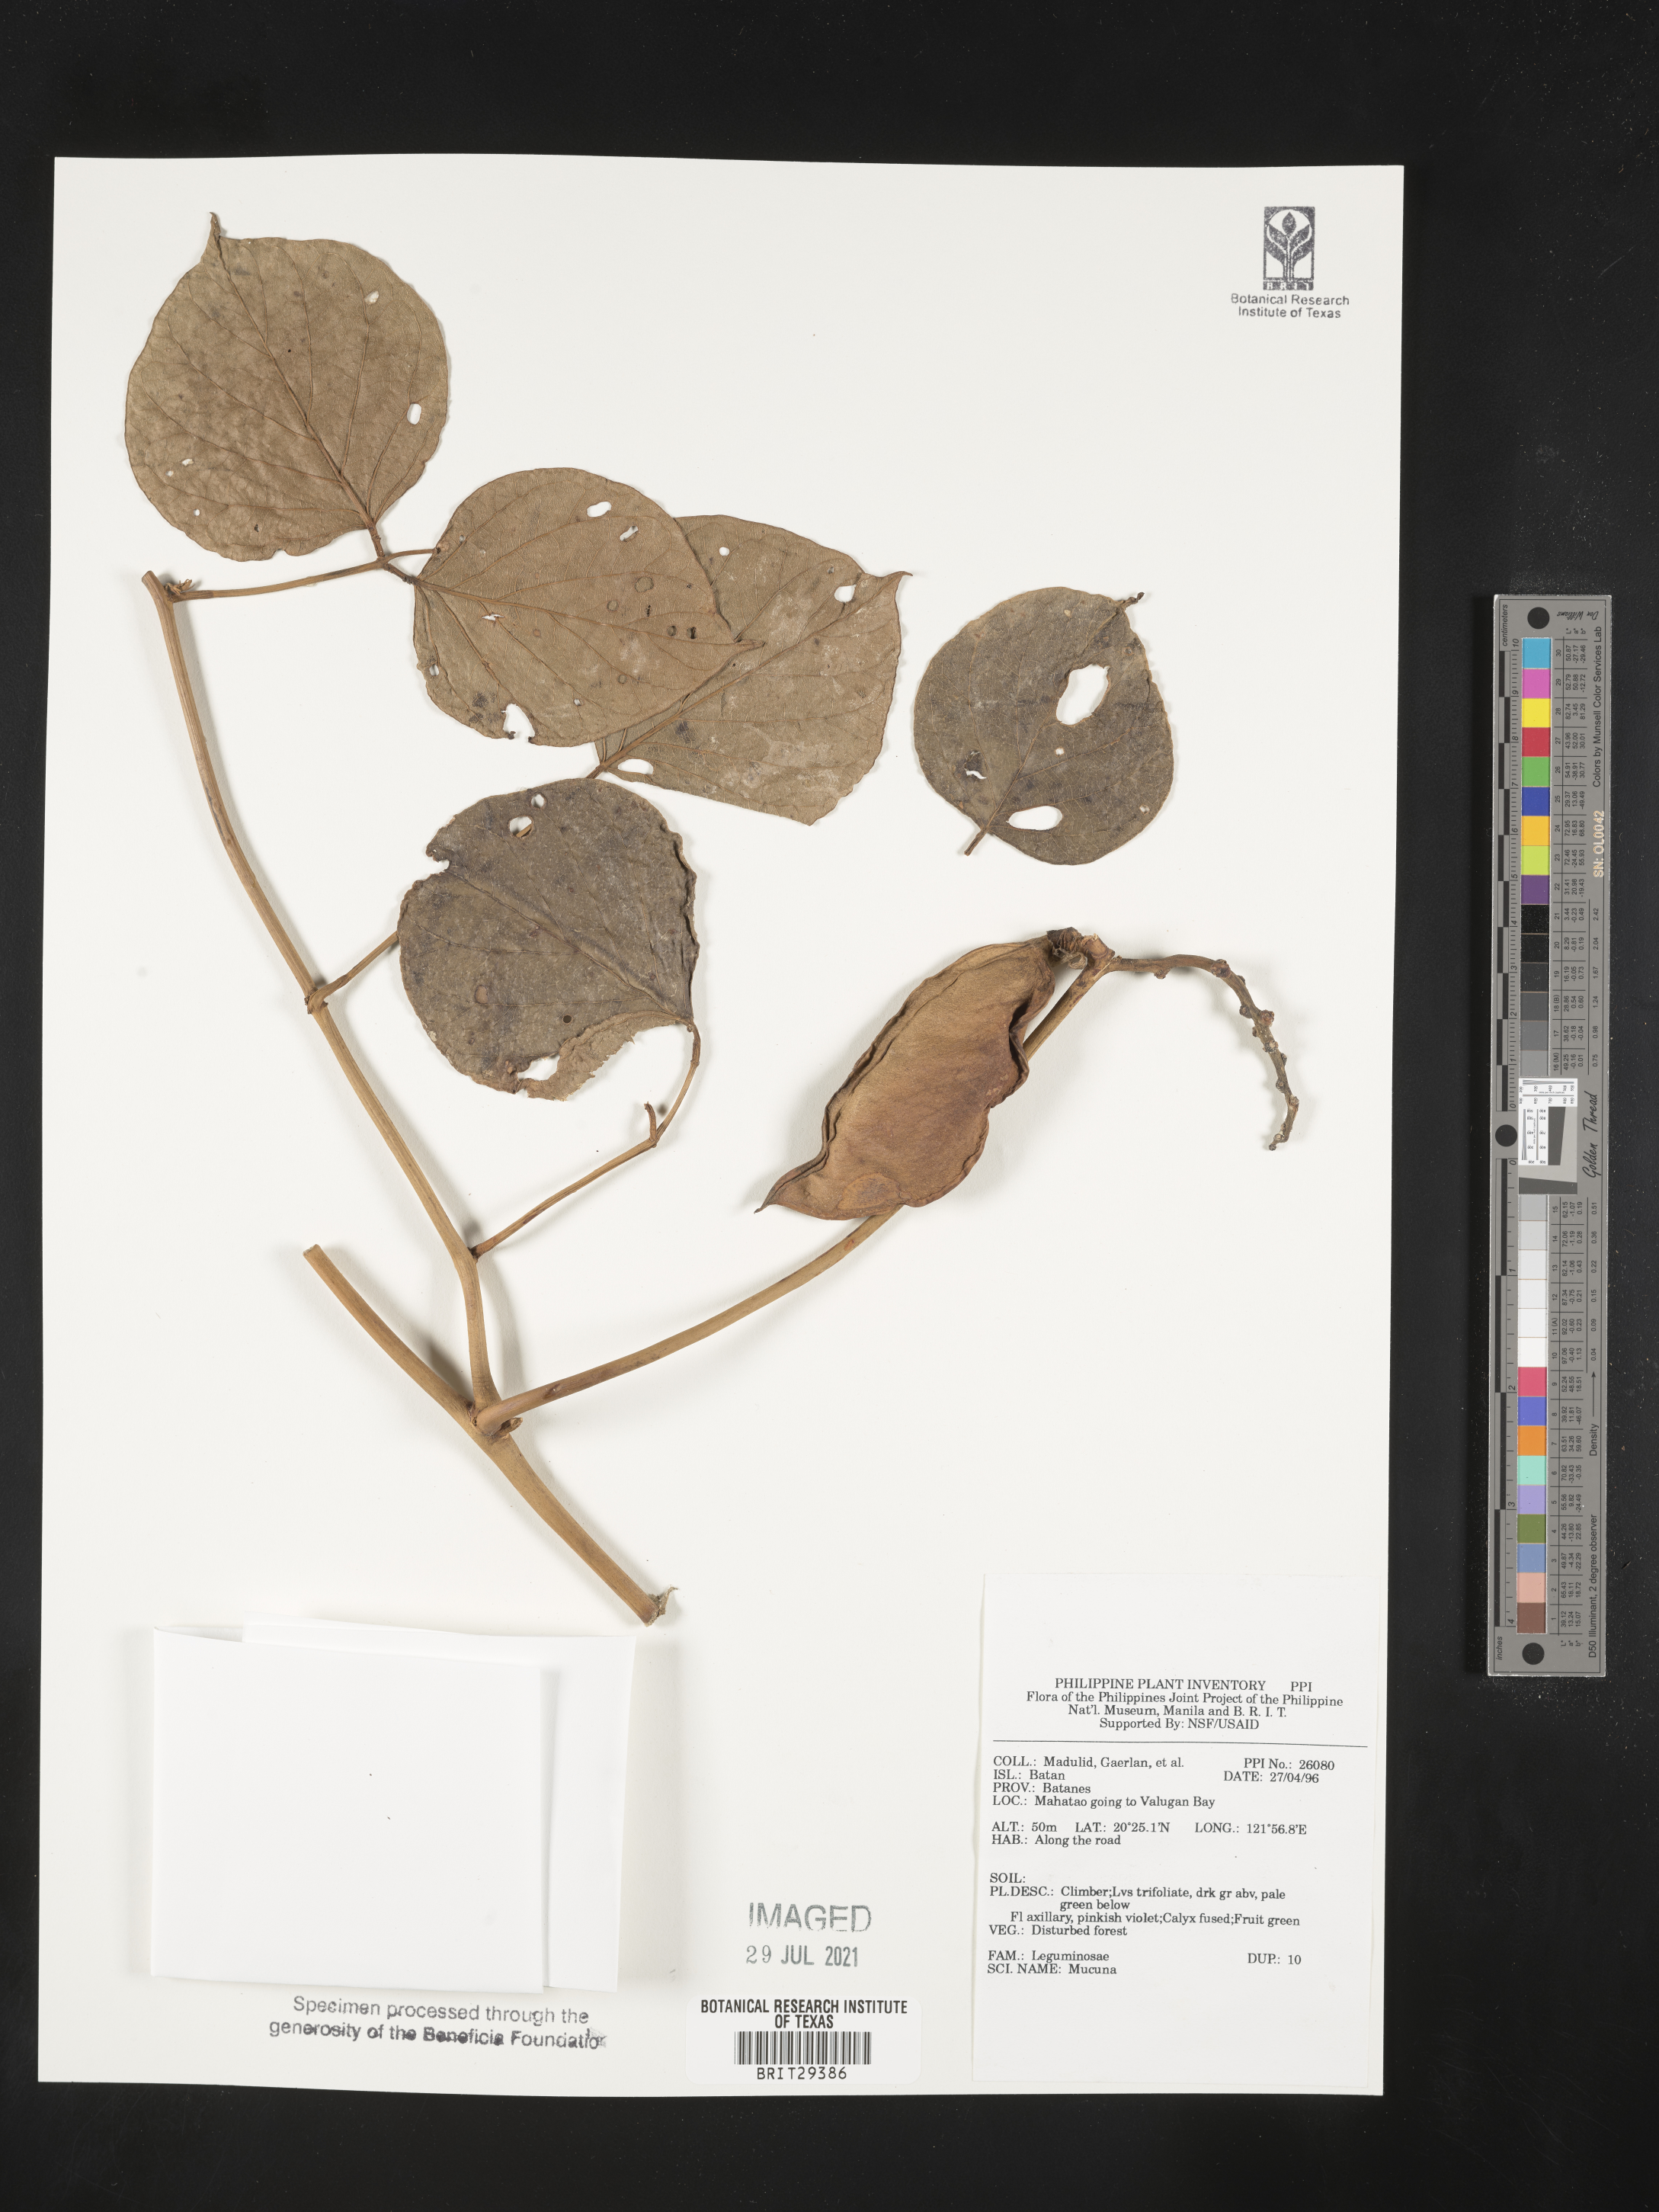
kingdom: Plantae
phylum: Tracheophyta
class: Magnoliopsida
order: Fabales
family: Fabaceae
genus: Mucuna
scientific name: Mucuna
